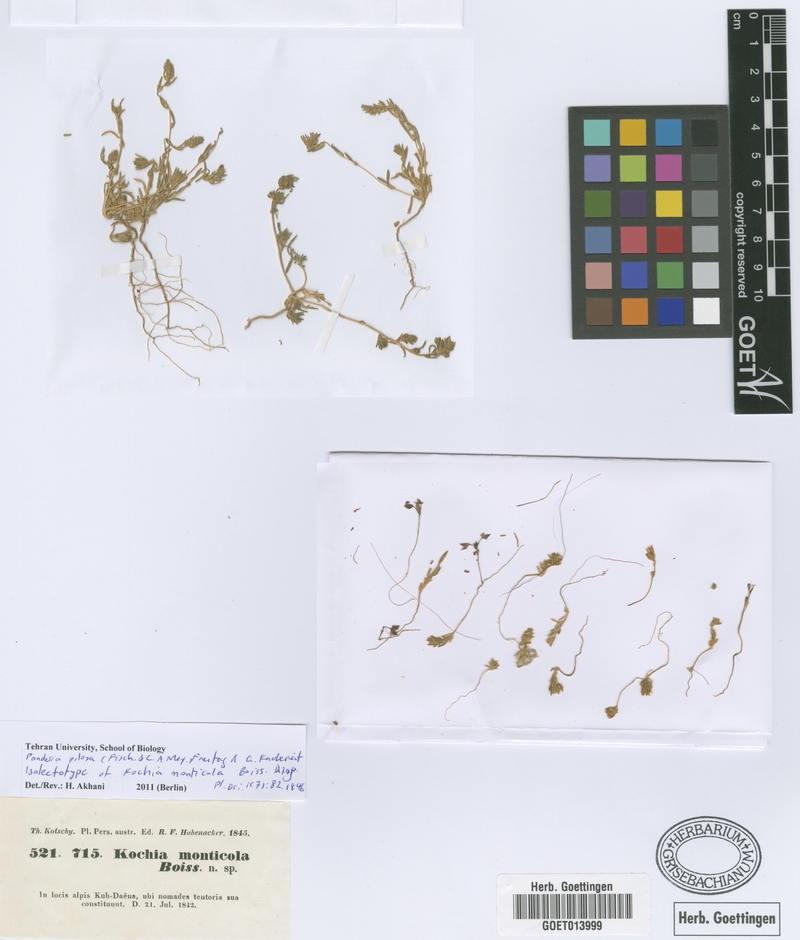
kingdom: Plantae
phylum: Tracheophyta
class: Magnoliopsida
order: Caryophyllales
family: Amaranthaceae
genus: Bassia
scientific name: Bassia stellaris
